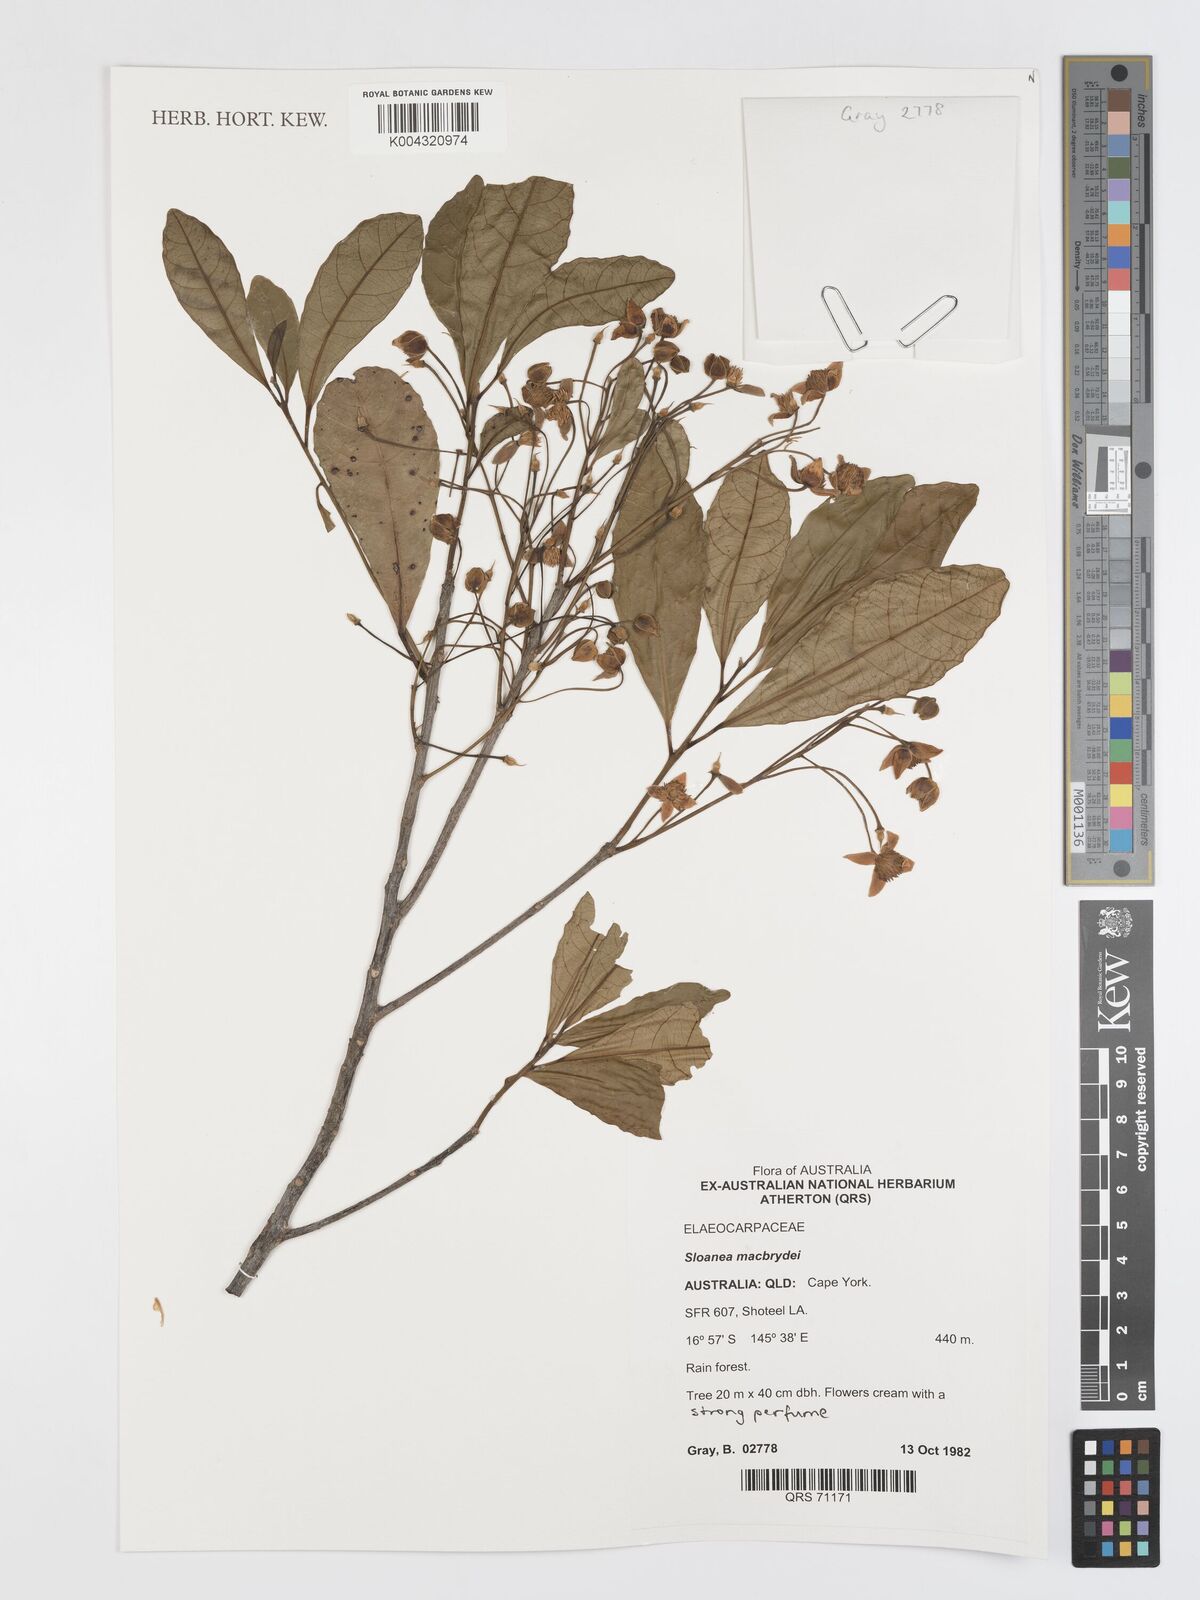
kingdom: Plantae
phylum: Tracheophyta
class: Magnoliopsida
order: Oxalidales
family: Elaeocarpaceae
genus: Sloanea
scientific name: Sloanea macbrydei
